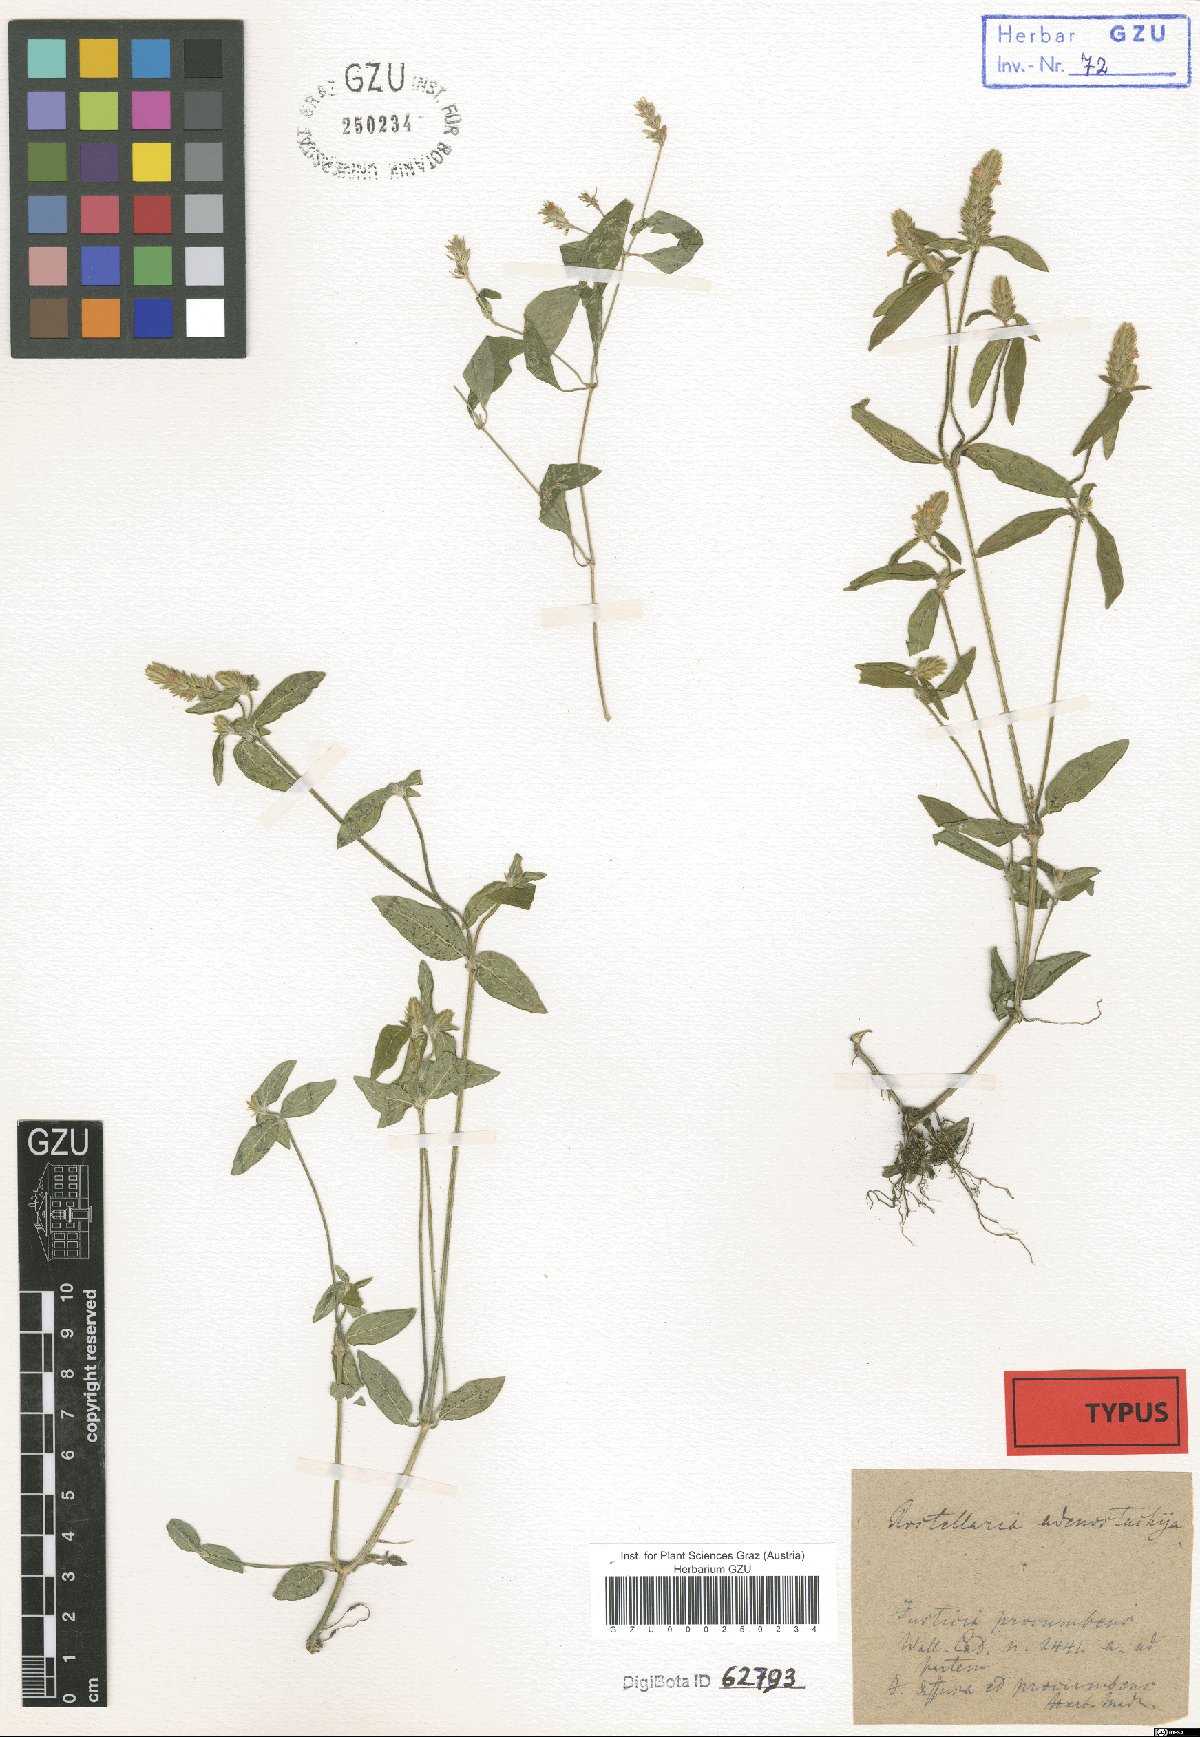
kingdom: Plantae
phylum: Tracheophyta
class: Magnoliopsida
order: Lamiales
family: Acanthaceae
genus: Rostellularia
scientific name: Rostellularia procumbens
